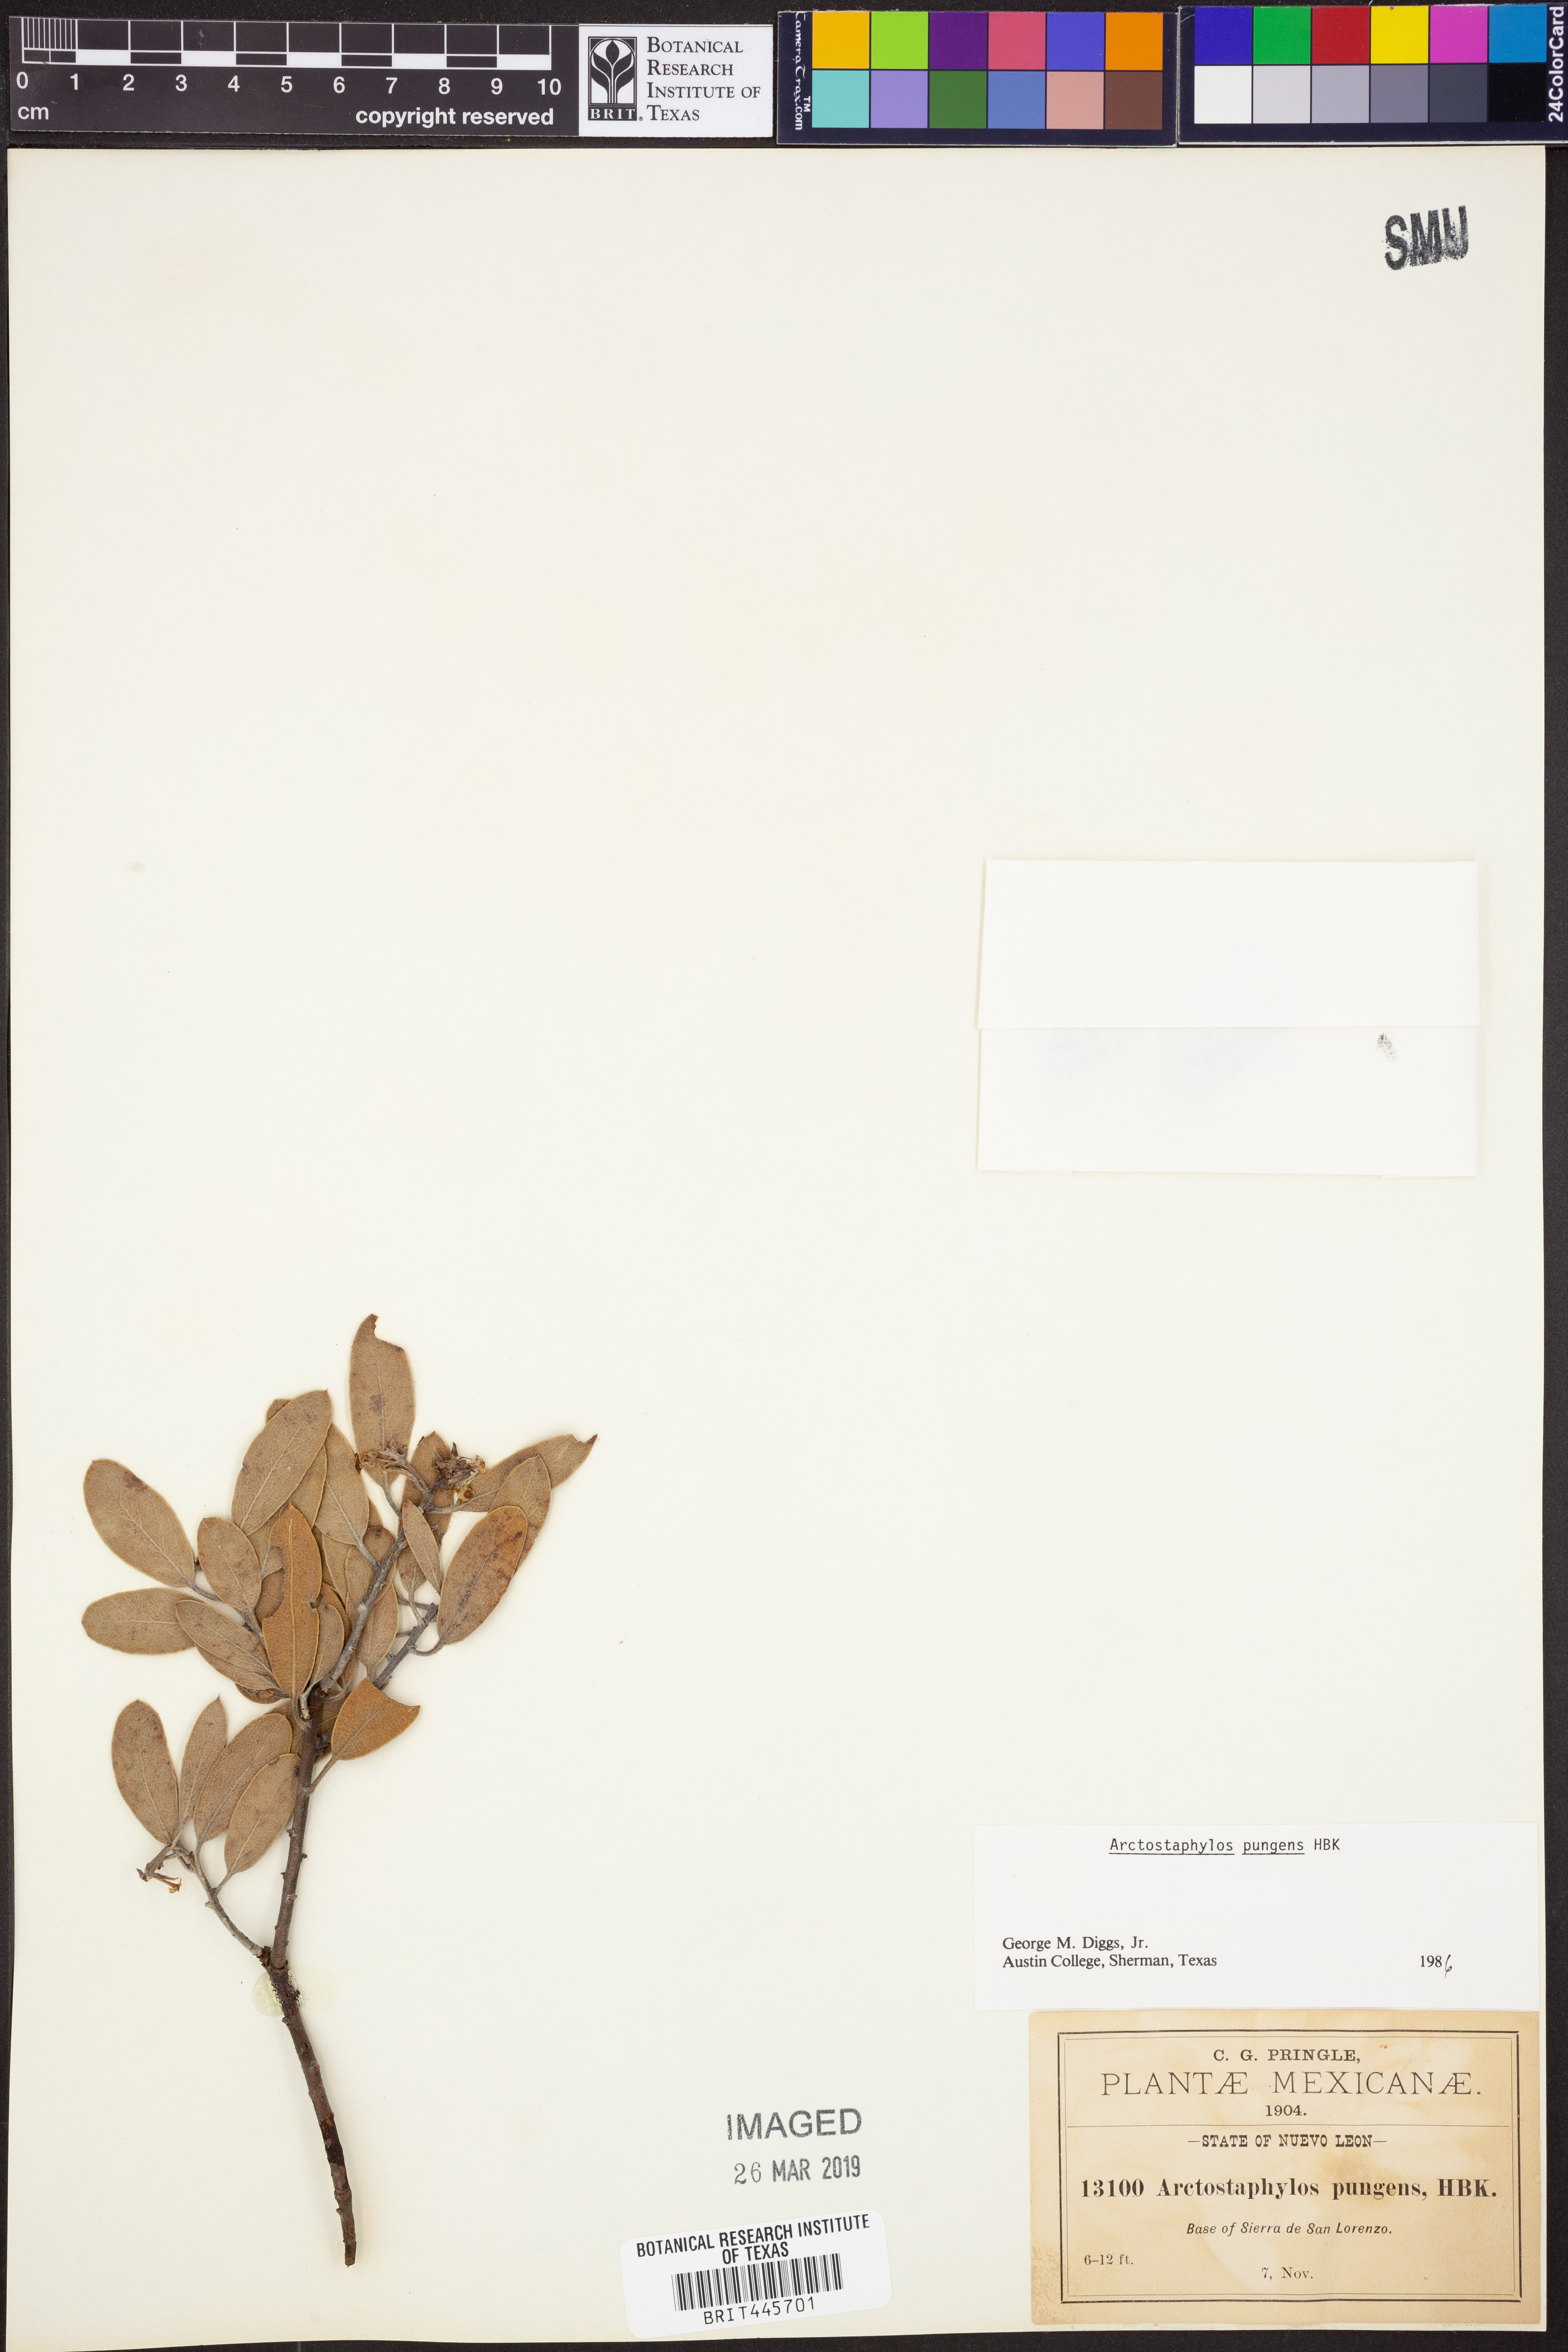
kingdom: Plantae
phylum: Tracheophyta
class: Magnoliopsida
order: Ericales
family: Ericaceae
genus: Arctostaphylos
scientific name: Arctostaphylos pungens
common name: Mexican manzanita
